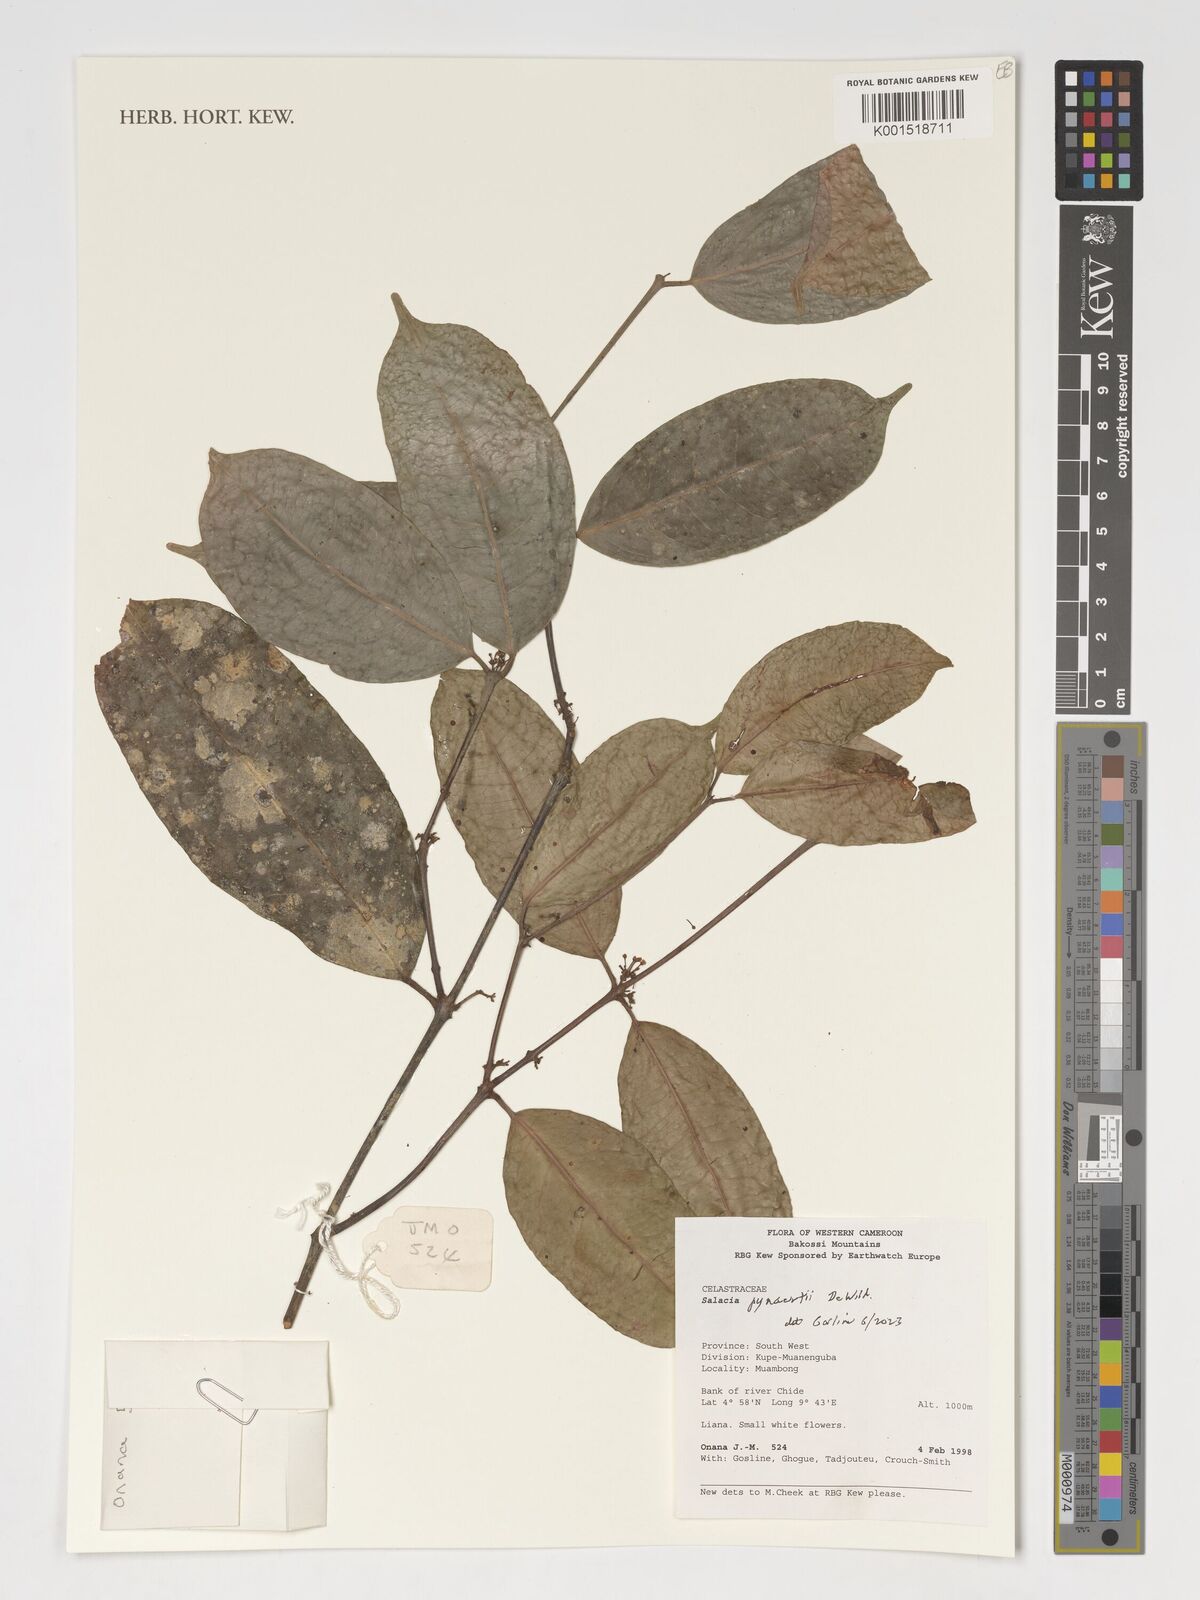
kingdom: Plantae
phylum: Tracheophyta
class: Magnoliopsida
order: Celastrales
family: Celastraceae
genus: Salacia
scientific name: Salacia pynaertii
